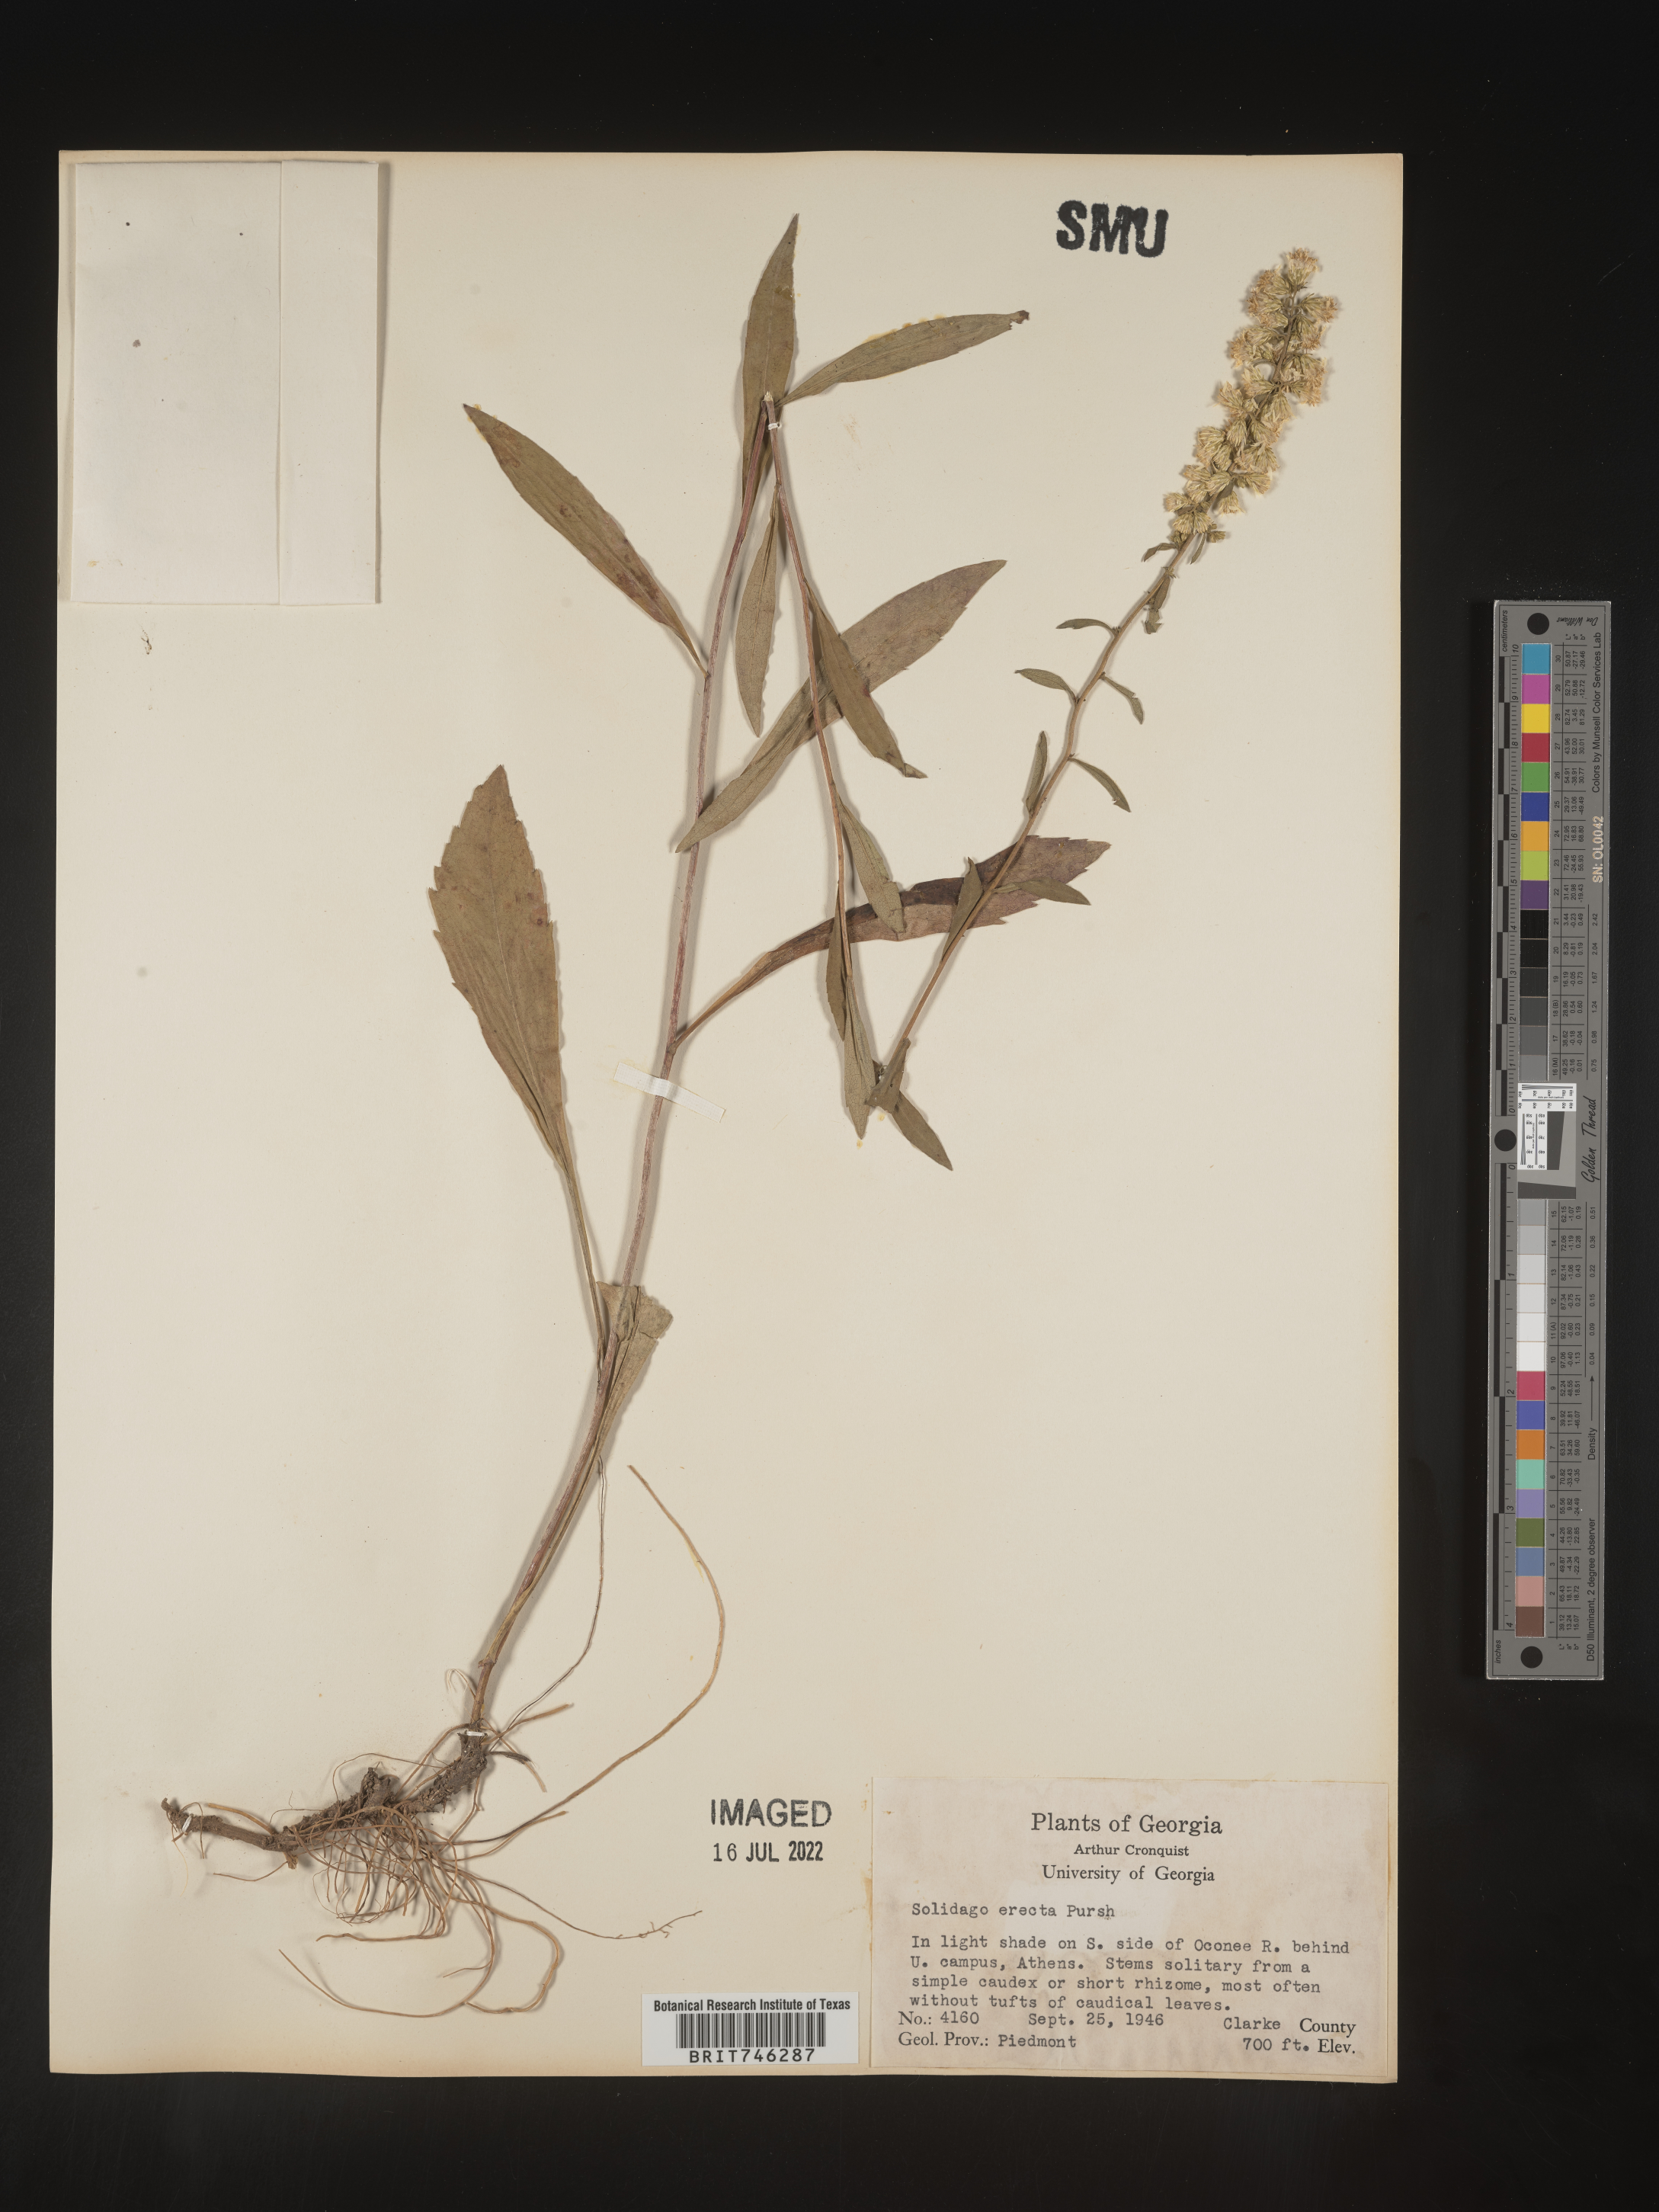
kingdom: Plantae
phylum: Tracheophyta
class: Magnoliopsida
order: Asterales
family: Asteraceae
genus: Solidago
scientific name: Solidago erecta
